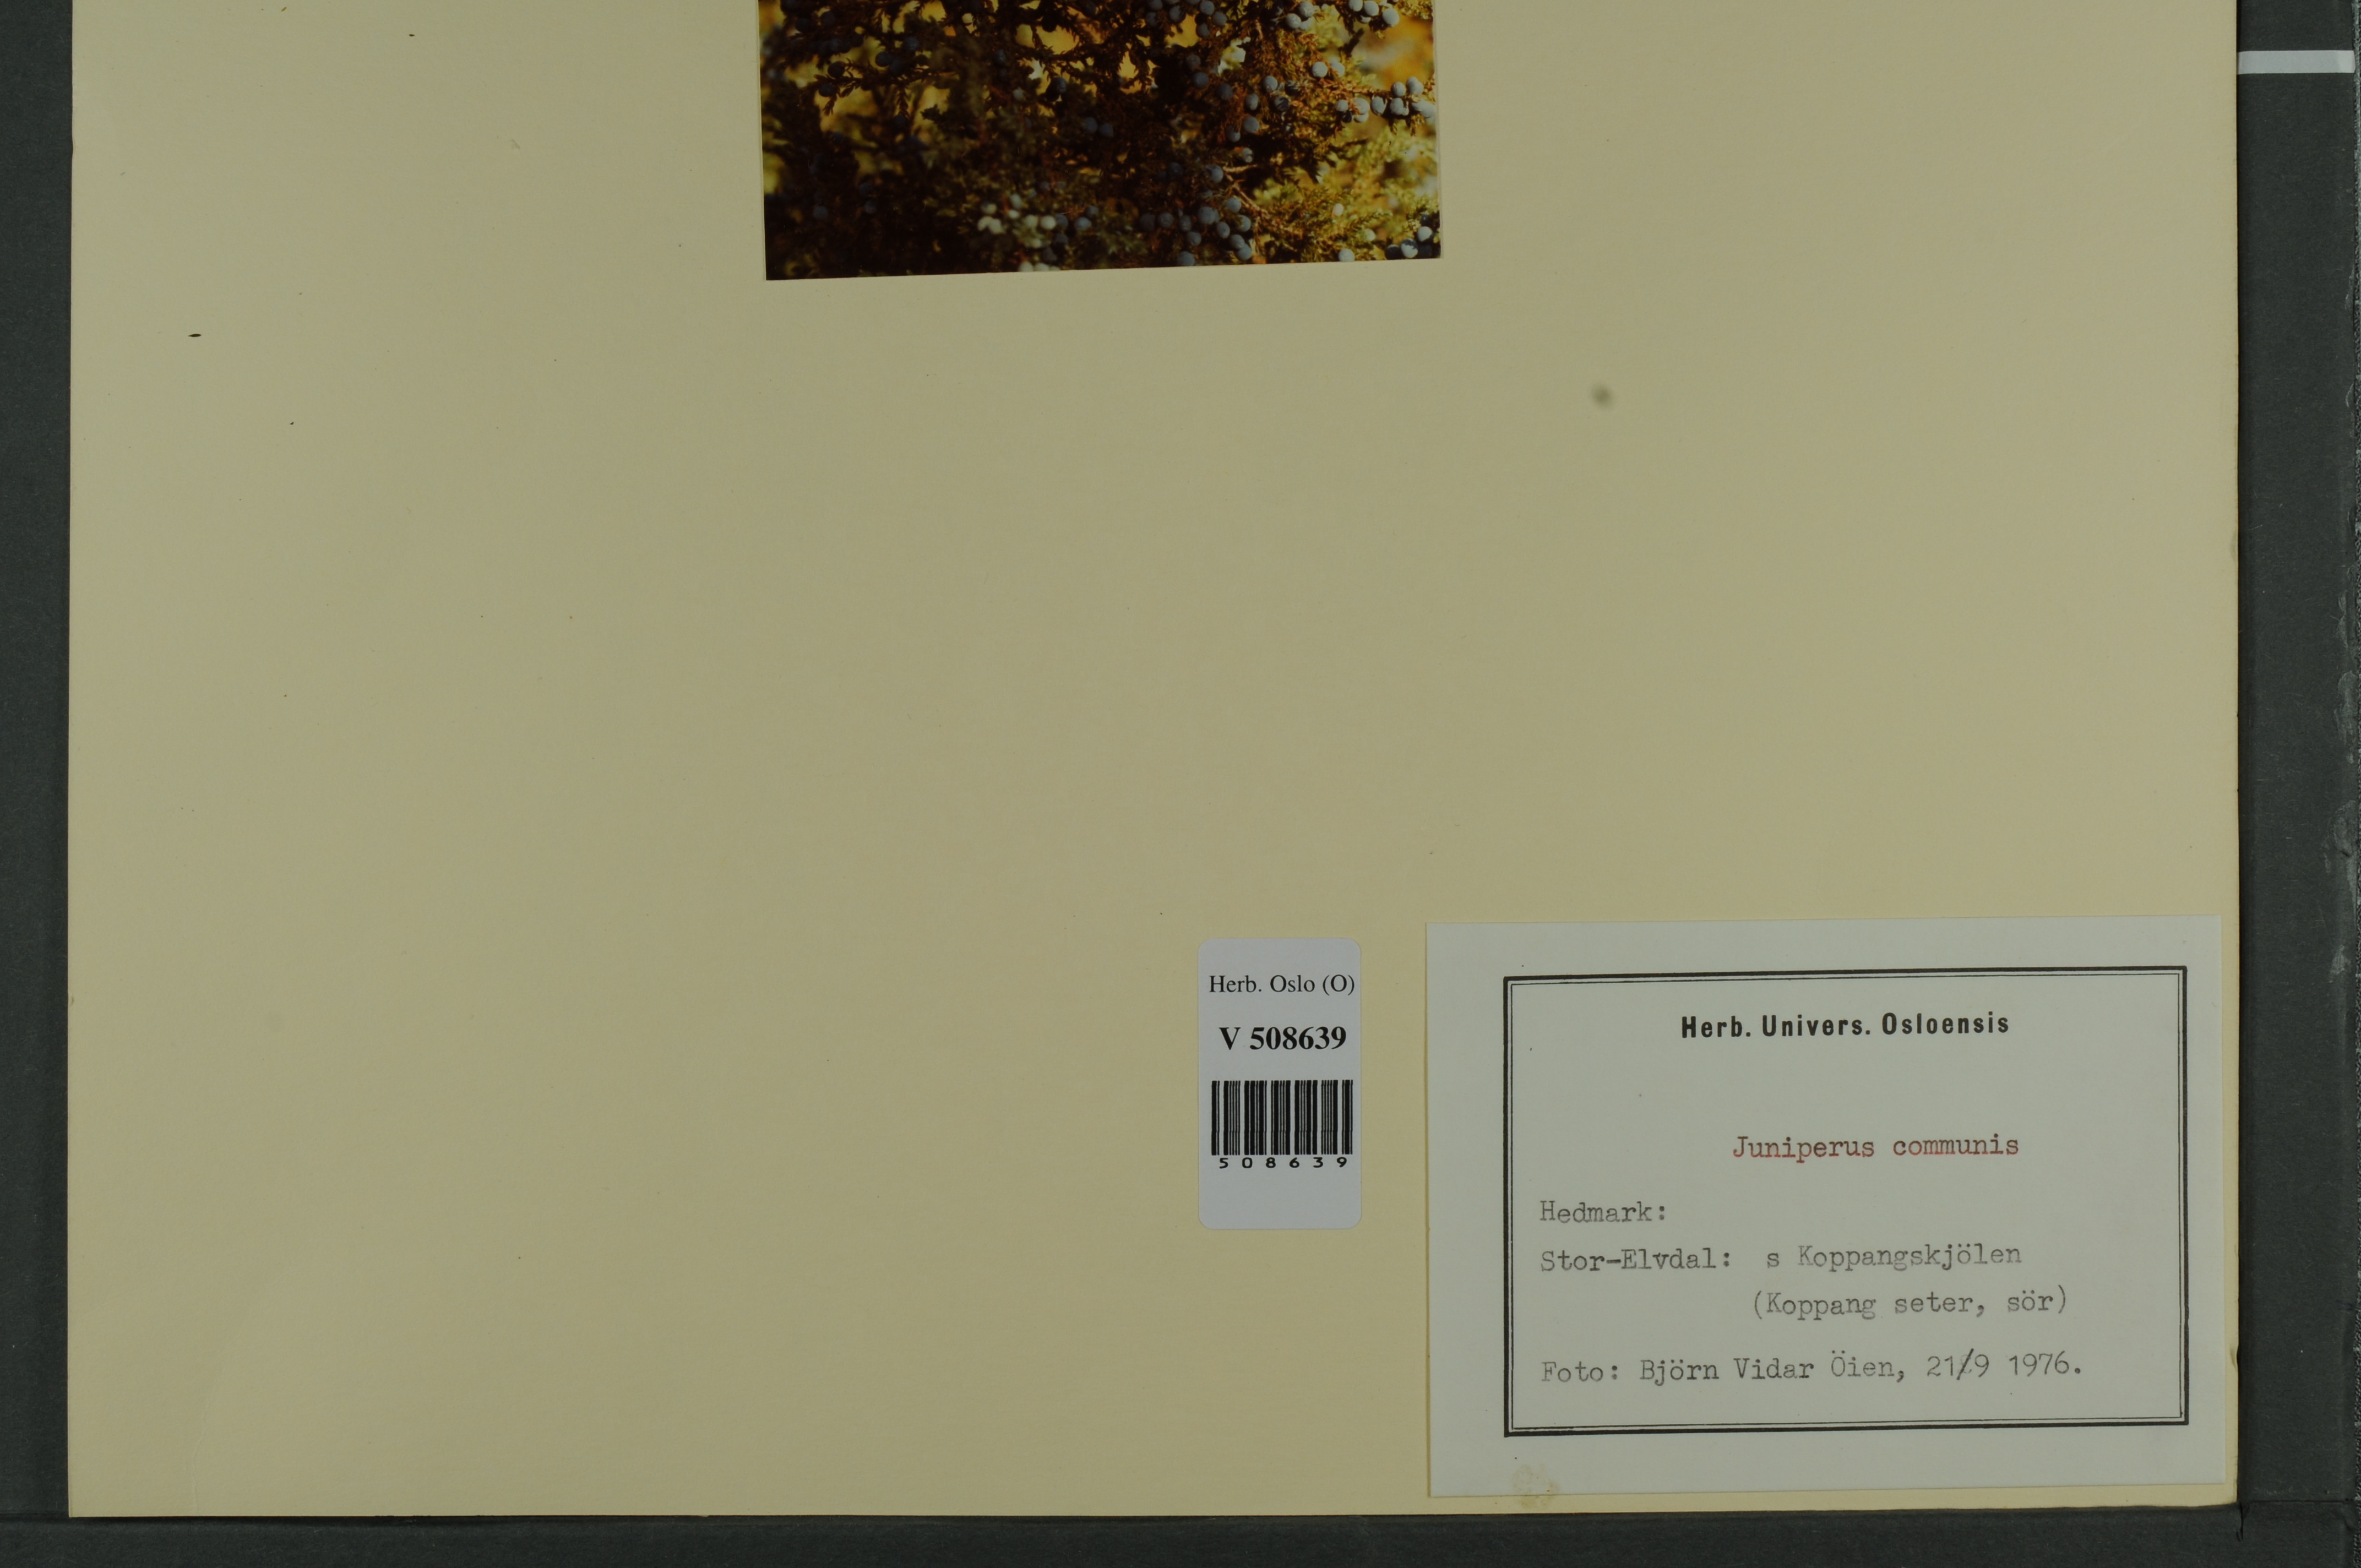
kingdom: Plantae
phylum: Tracheophyta
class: Pinopsida
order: Pinales
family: Cupressaceae
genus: Juniperus
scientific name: Juniperus communis
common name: Common juniper
